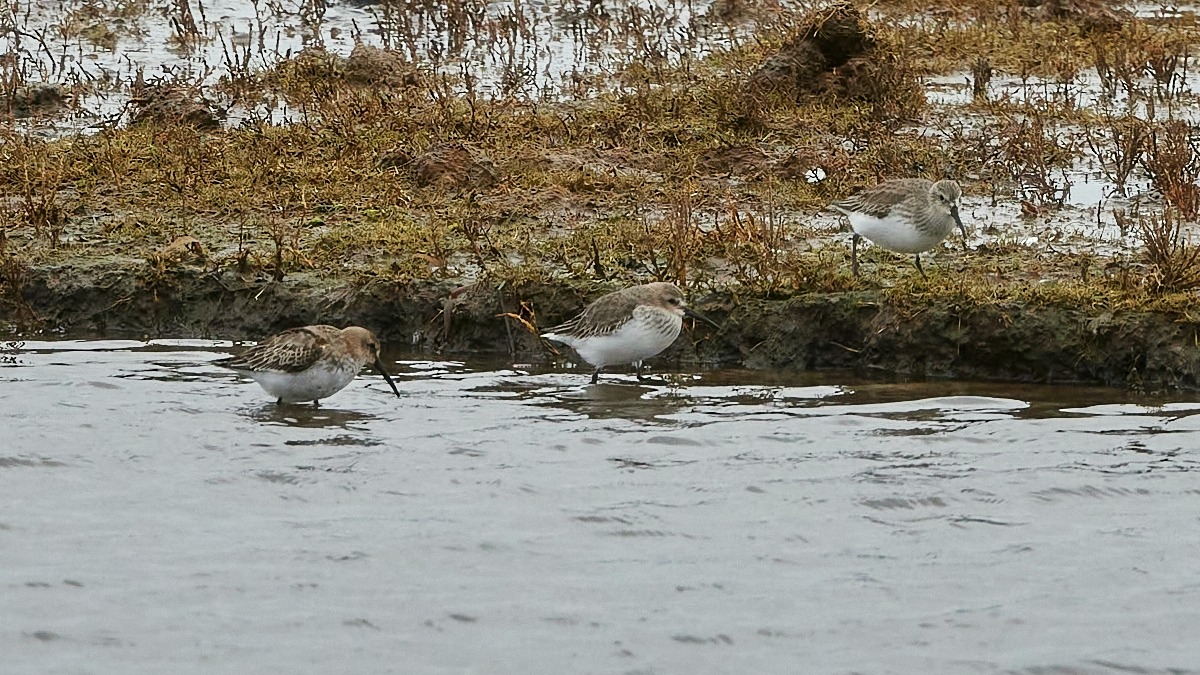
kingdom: Animalia
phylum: Chordata
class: Aves
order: Charadriiformes
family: Scolopacidae
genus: Calidris
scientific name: Calidris alpina
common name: Almindelig ryle
